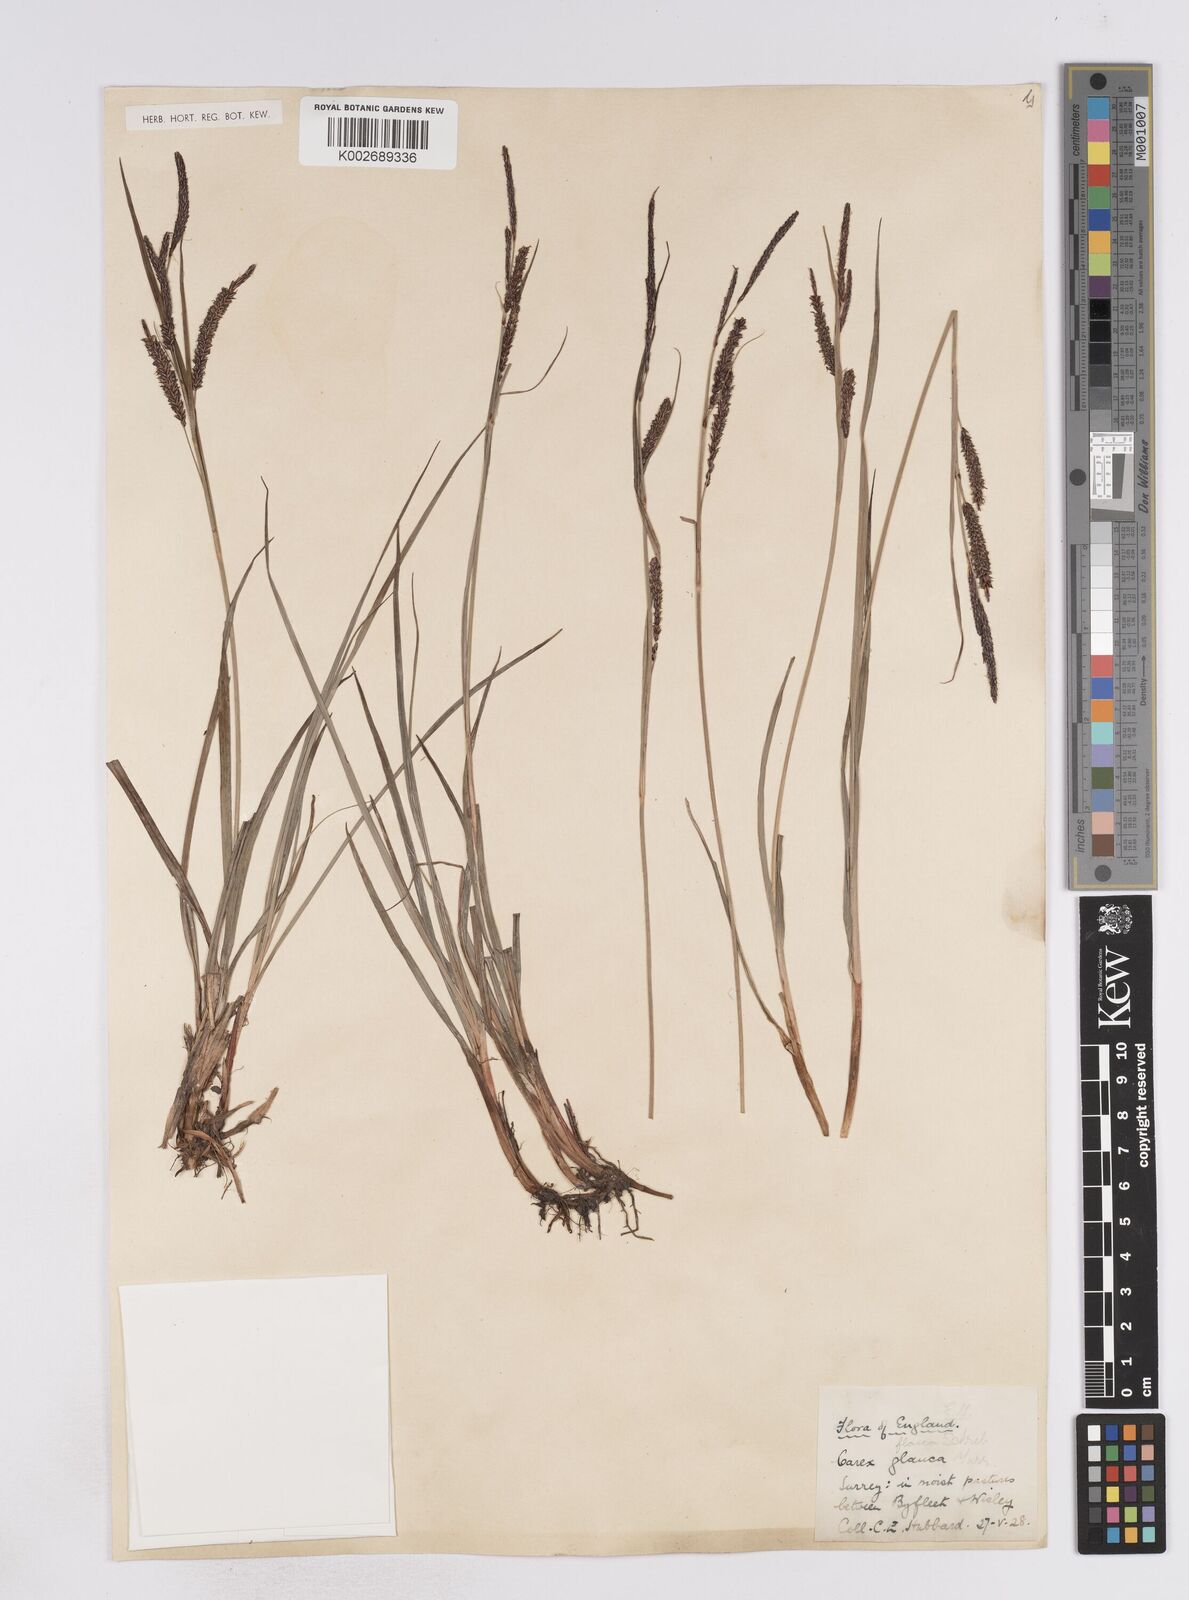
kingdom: Plantae
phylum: Tracheophyta
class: Liliopsida
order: Poales
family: Cyperaceae
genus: Carex
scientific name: Carex flacca
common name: Glaucous sedge
